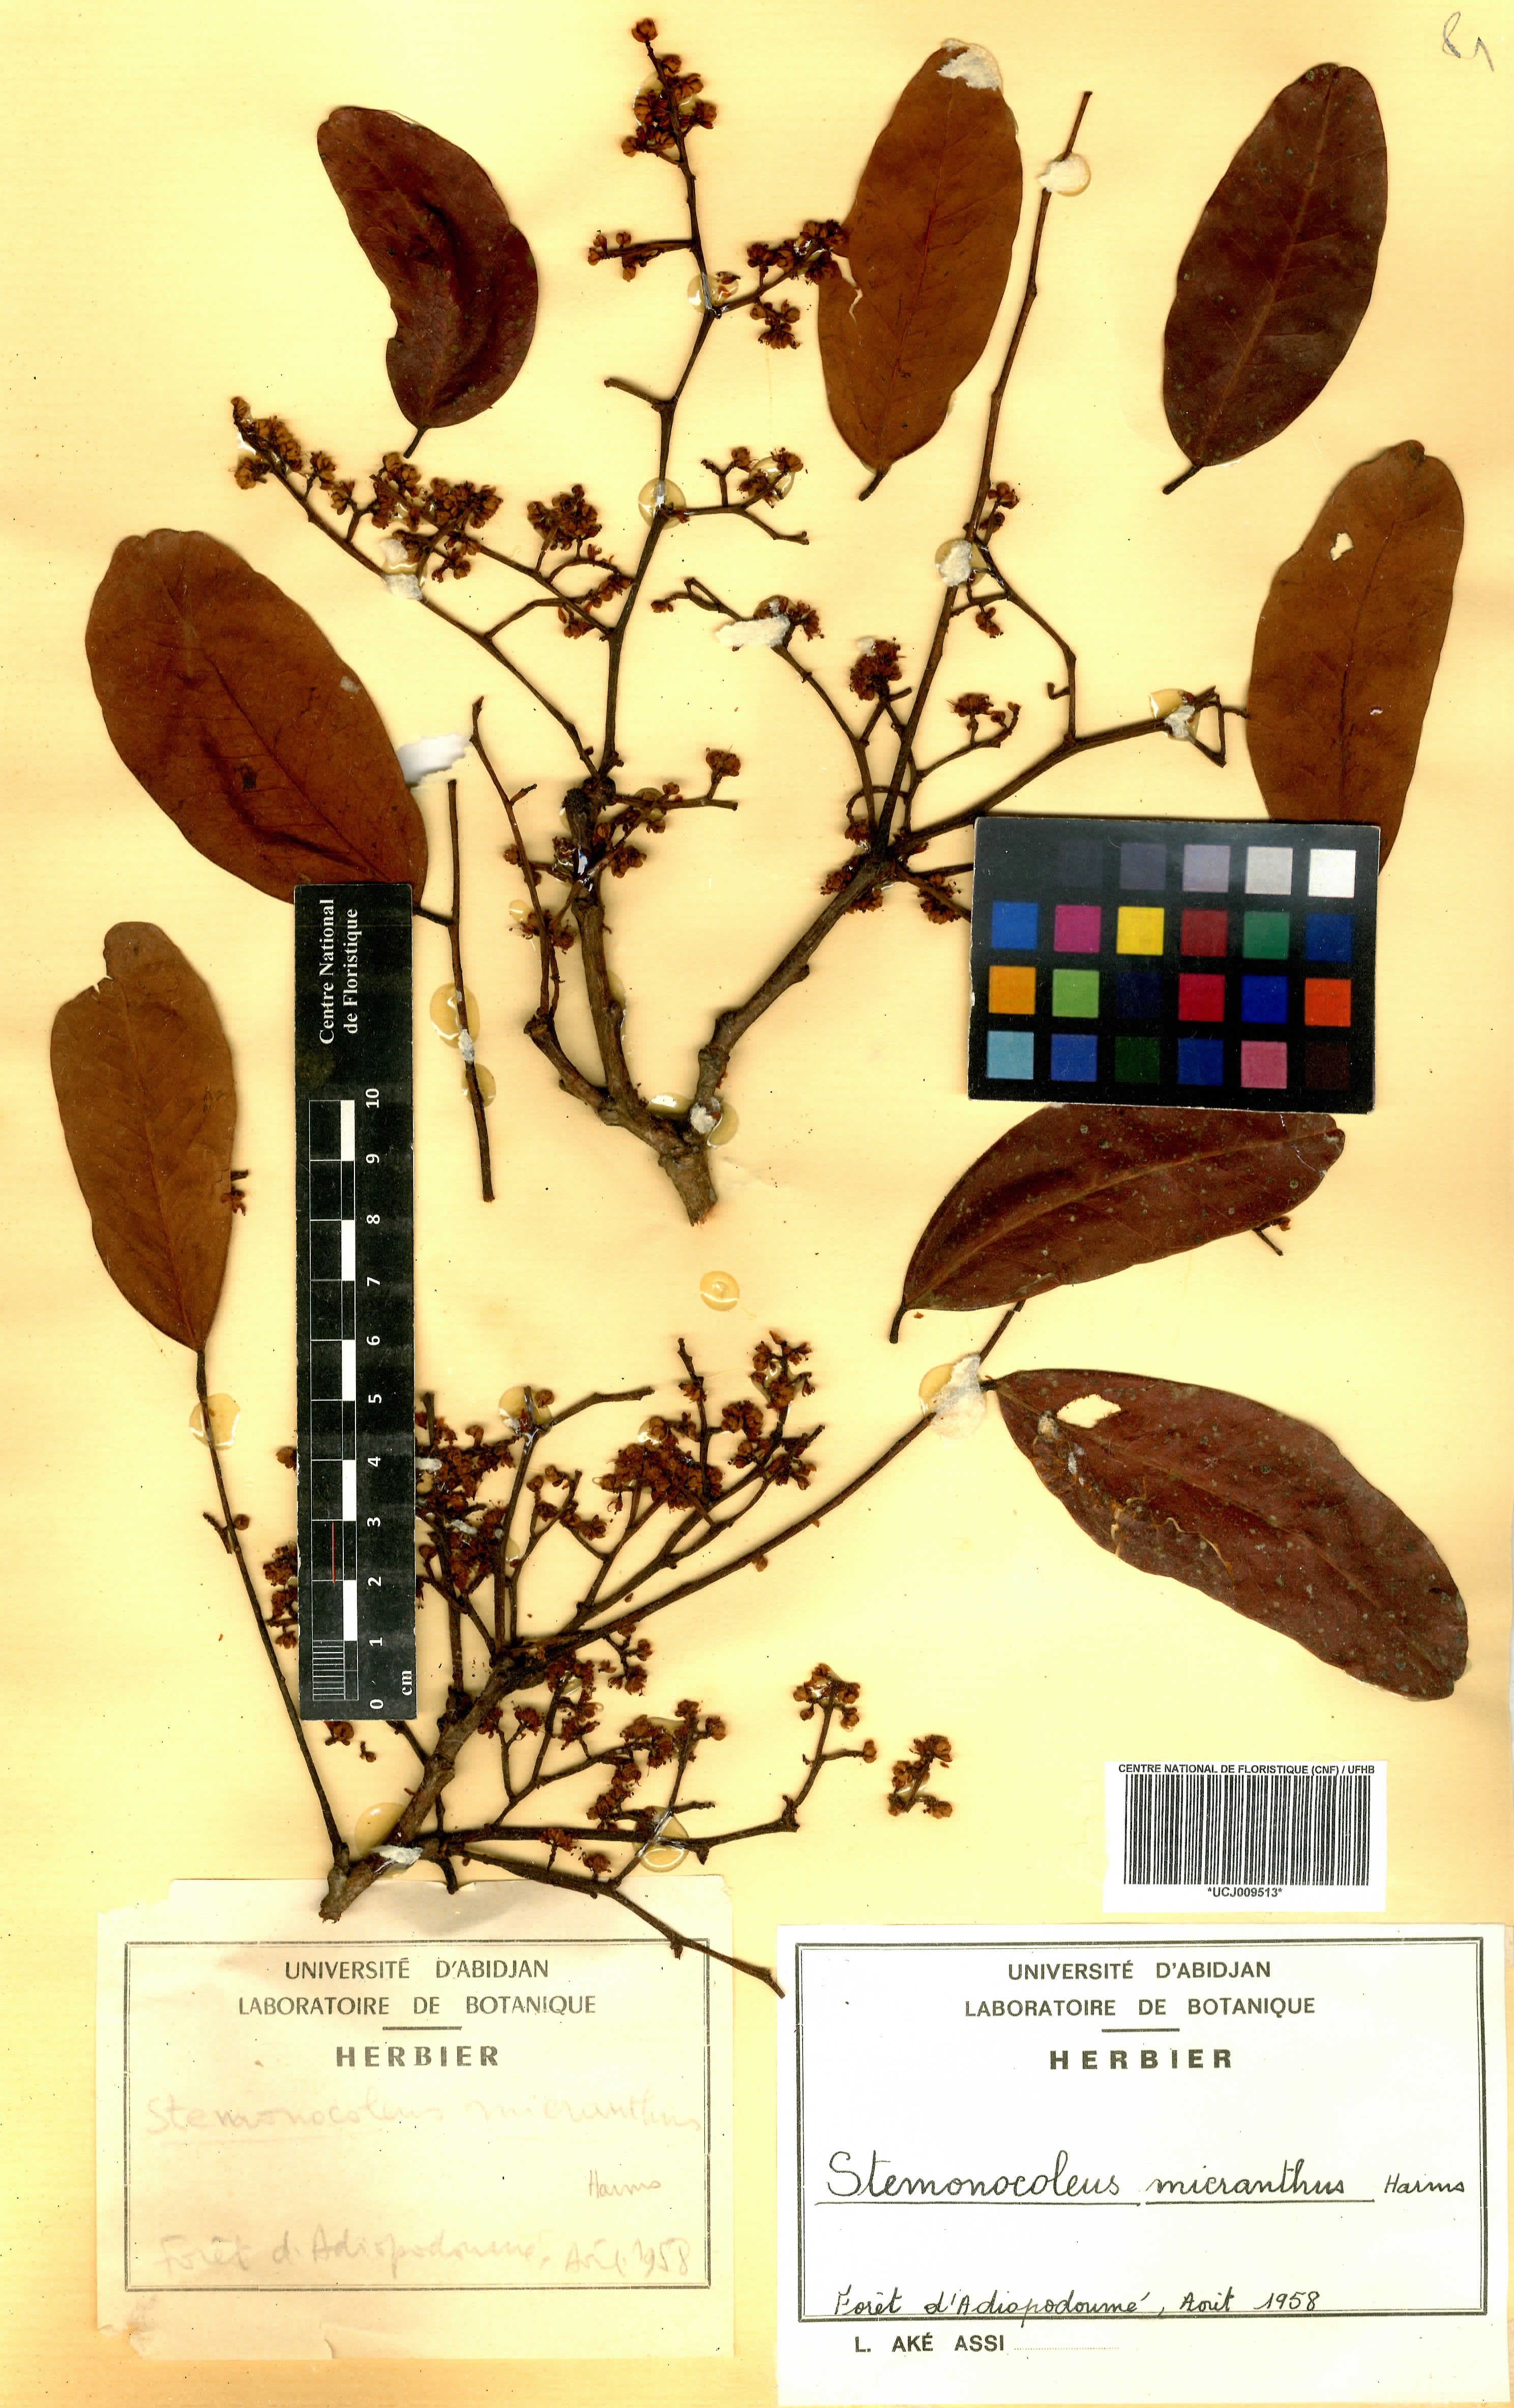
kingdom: Plantae
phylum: Tracheophyta
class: Magnoliopsida
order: Fabales
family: Fabaceae
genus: Stemonocoleus
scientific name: Stemonocoleus micranthus
